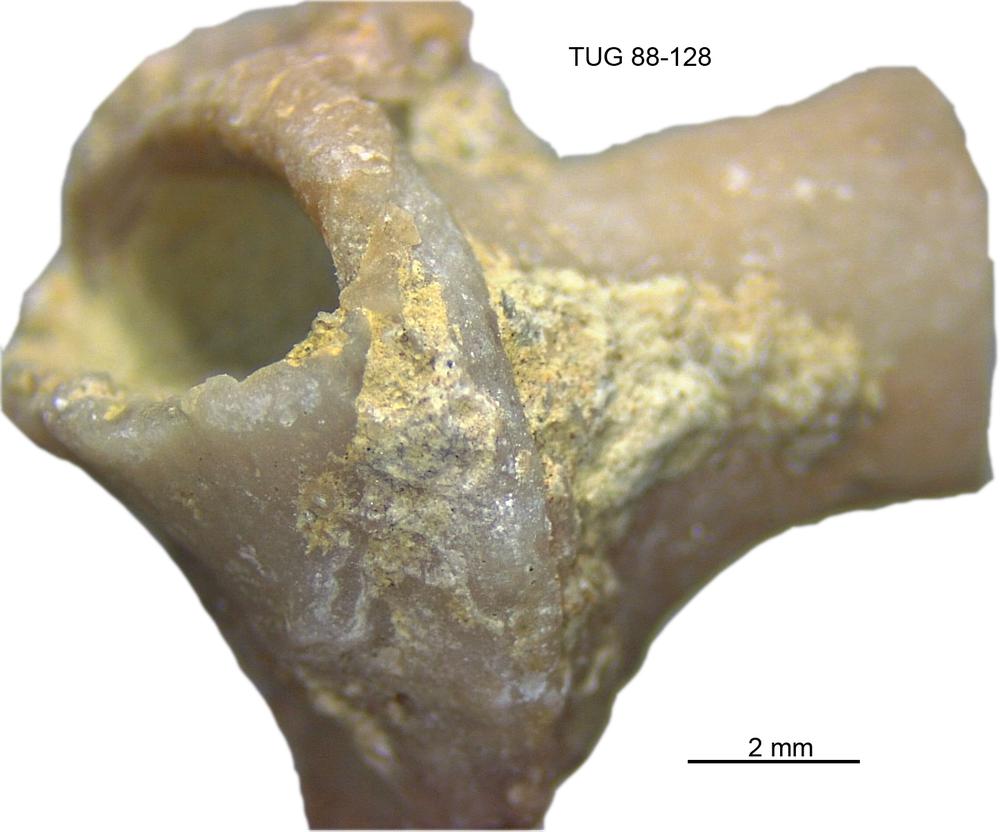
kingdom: Animalia
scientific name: Animalia
